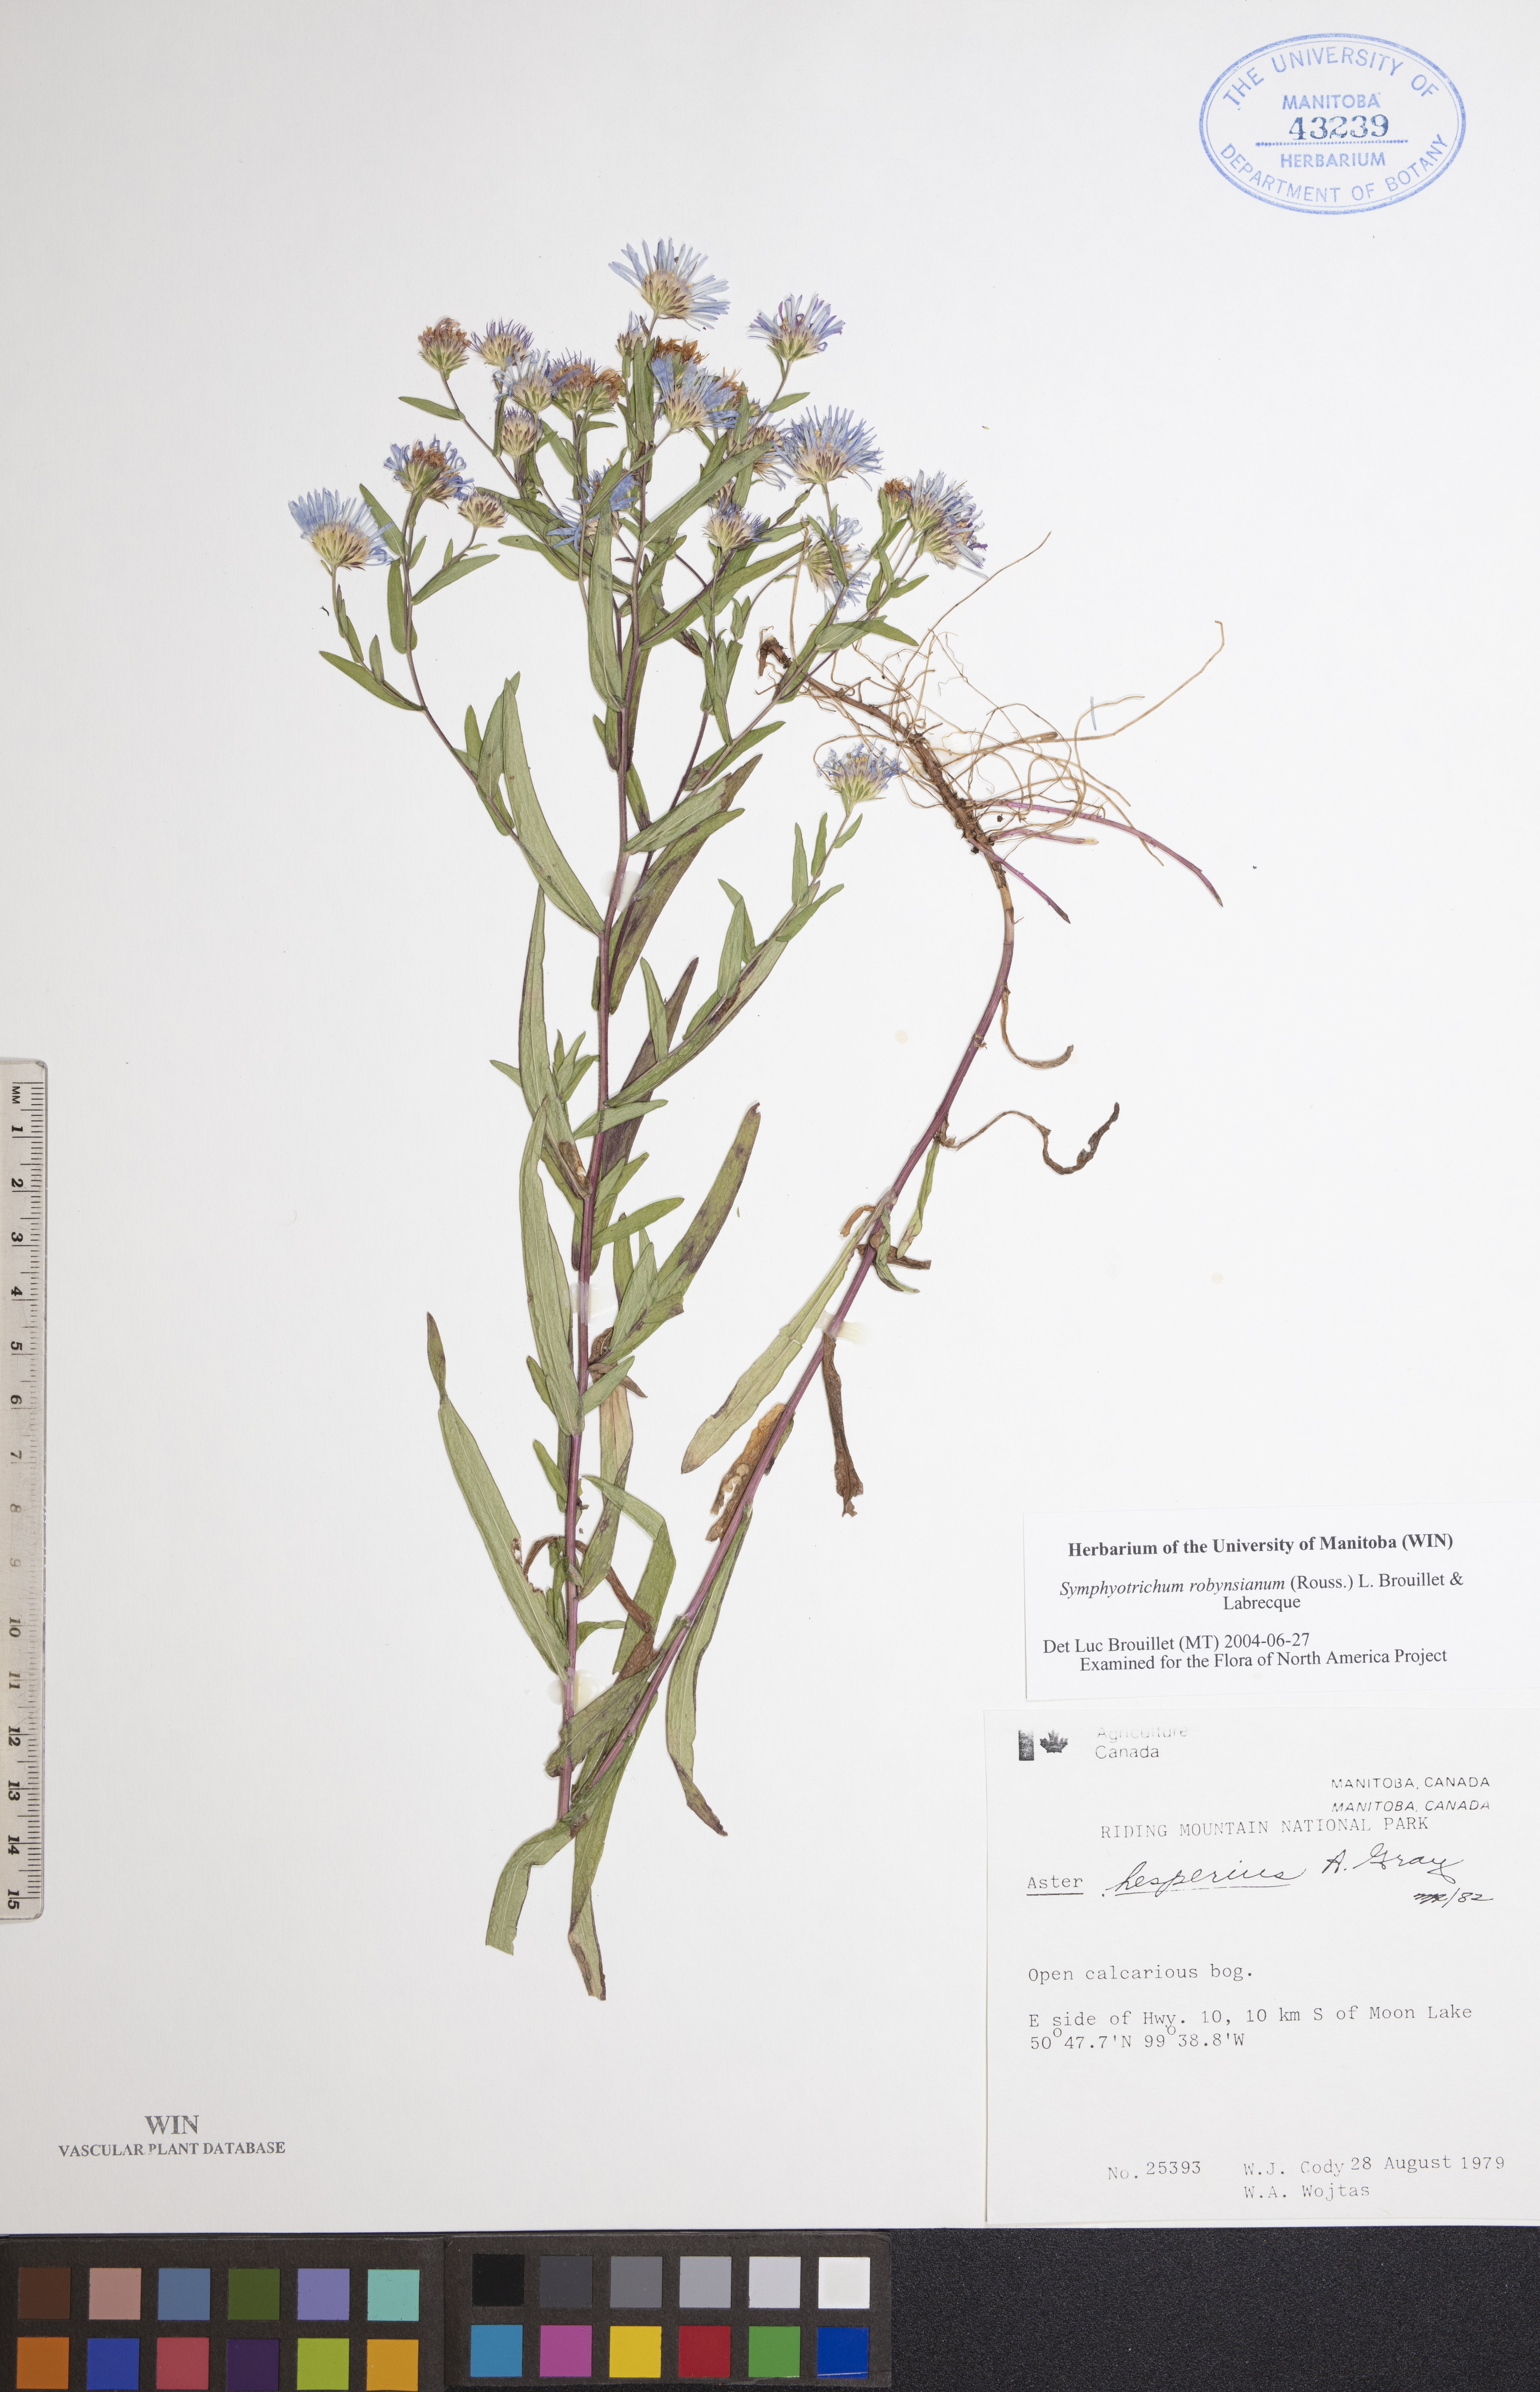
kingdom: Plantae
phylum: Tracheophyta
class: Magnoliopsida
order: Asterales
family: Asteraceae
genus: Symphyotrichum
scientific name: Symphyotrichum robynsianum
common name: Robyns' aster
